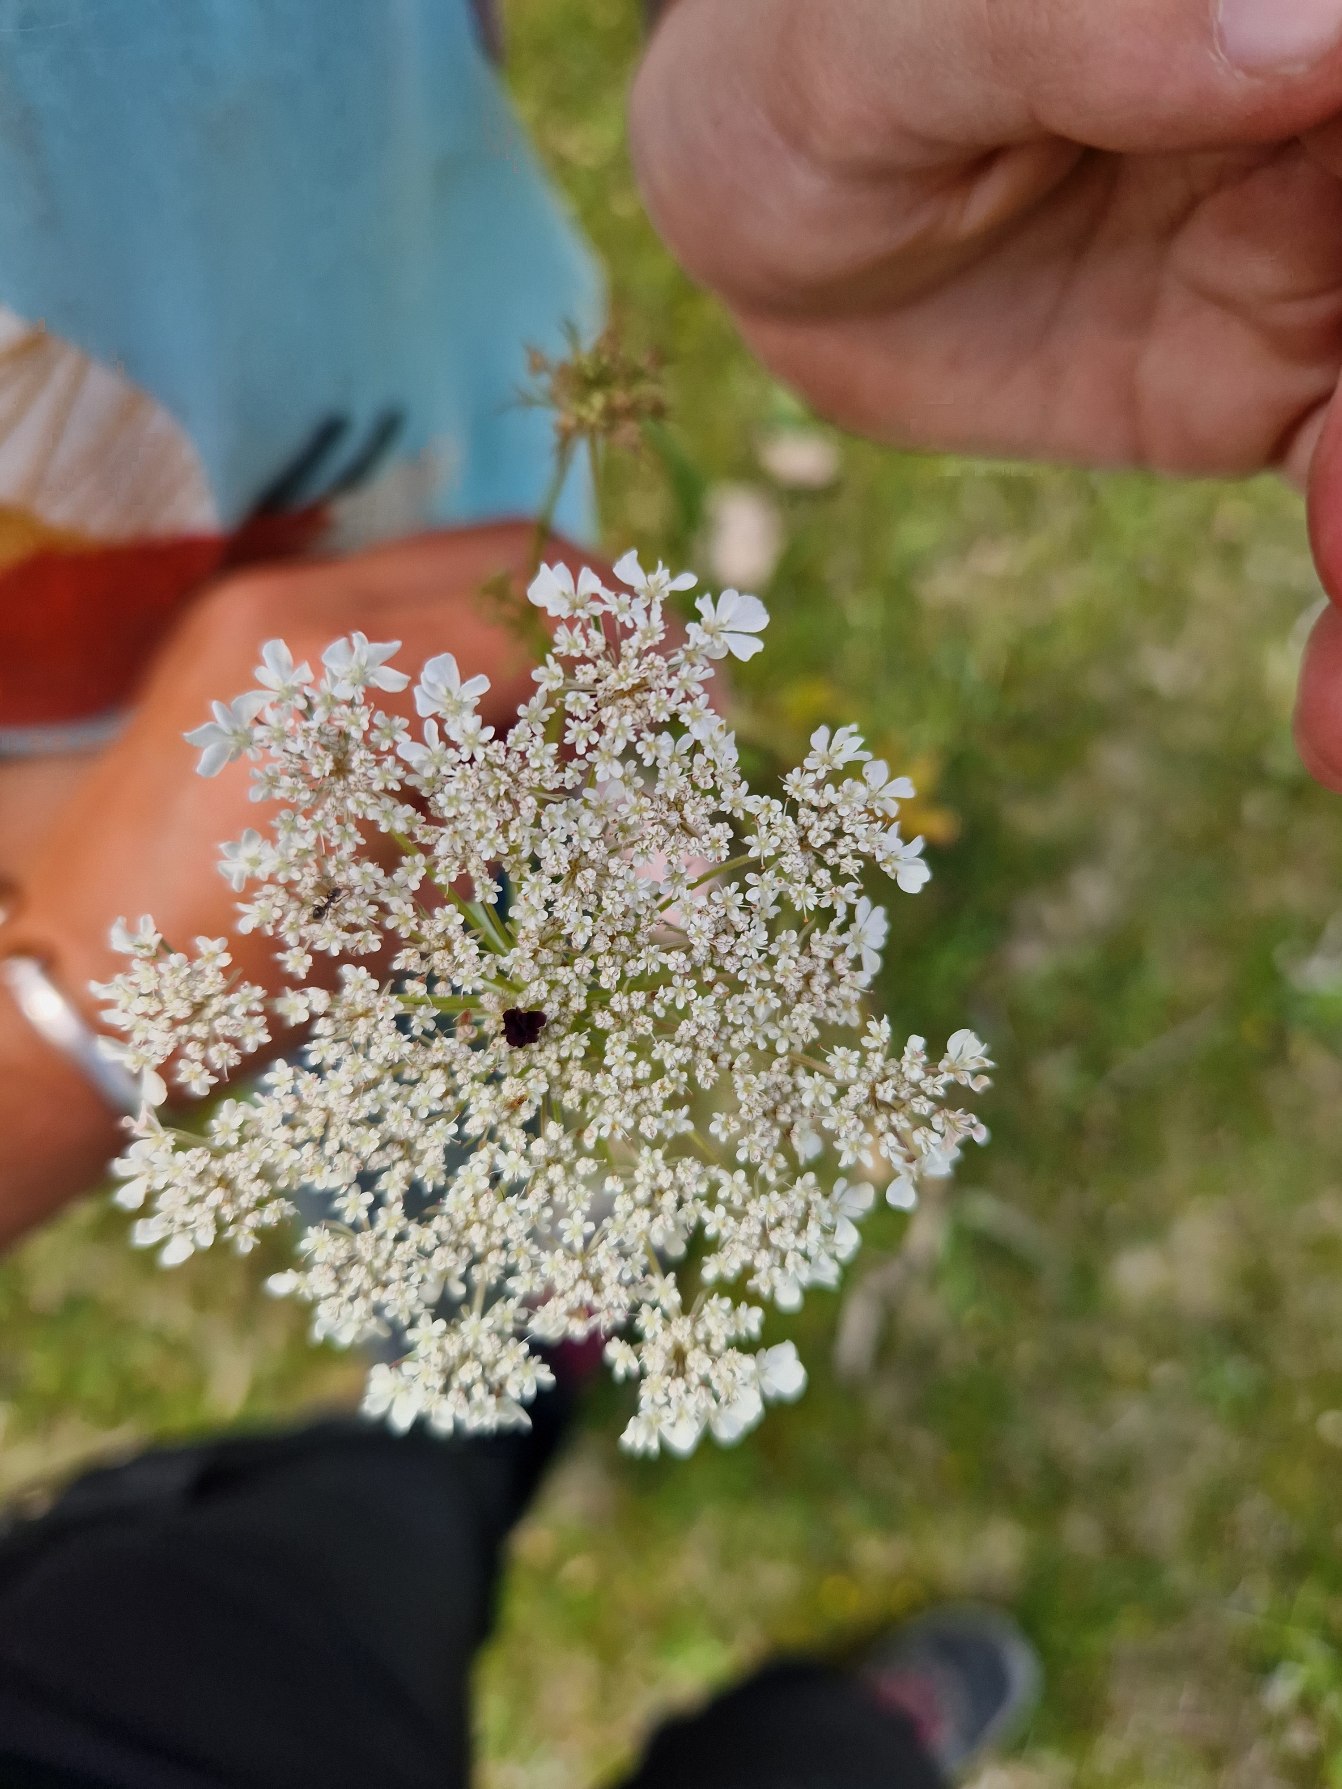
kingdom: Plantae
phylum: Tracheophyta
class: Magnoliopsida
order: Apiales
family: Apiaceae
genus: Daucus
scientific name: Daucus carota
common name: Vild gulerod
